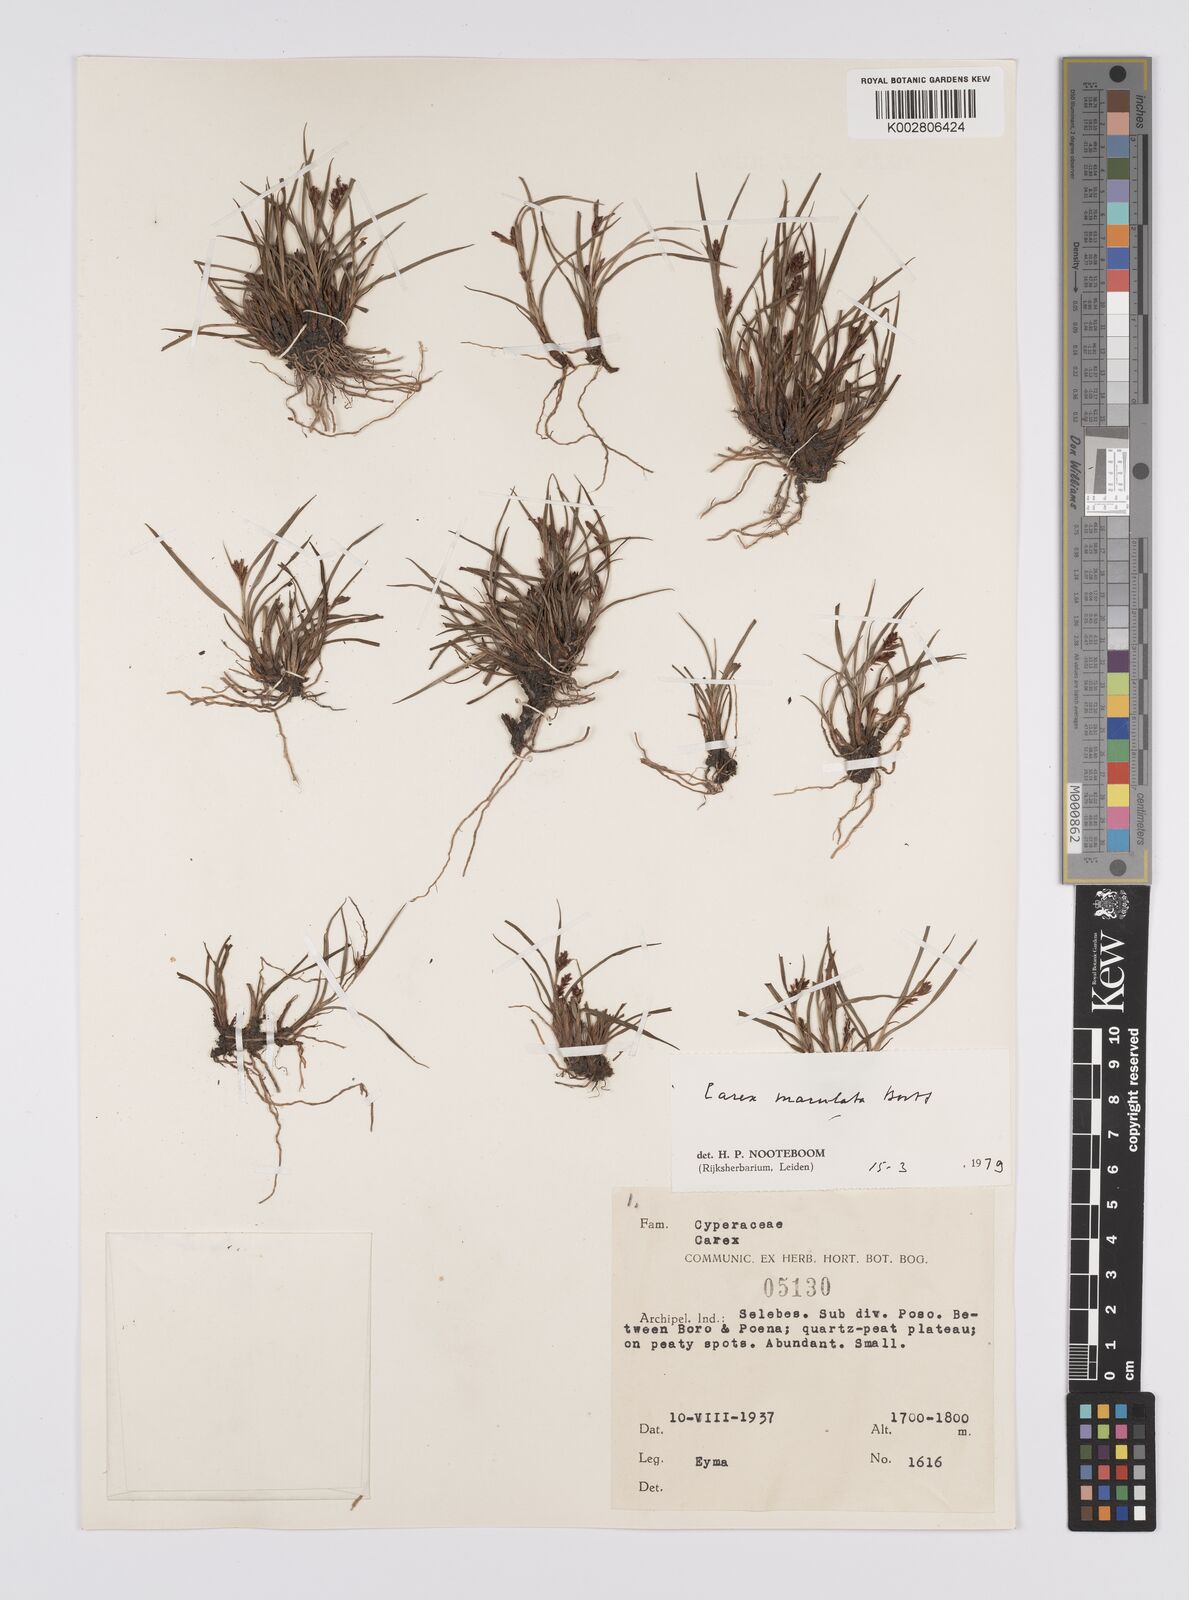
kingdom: Plantae
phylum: Tracheophyta
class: Liliopsida
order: Poales
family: Cyperaceae
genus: Carex
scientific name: Carex maculata
